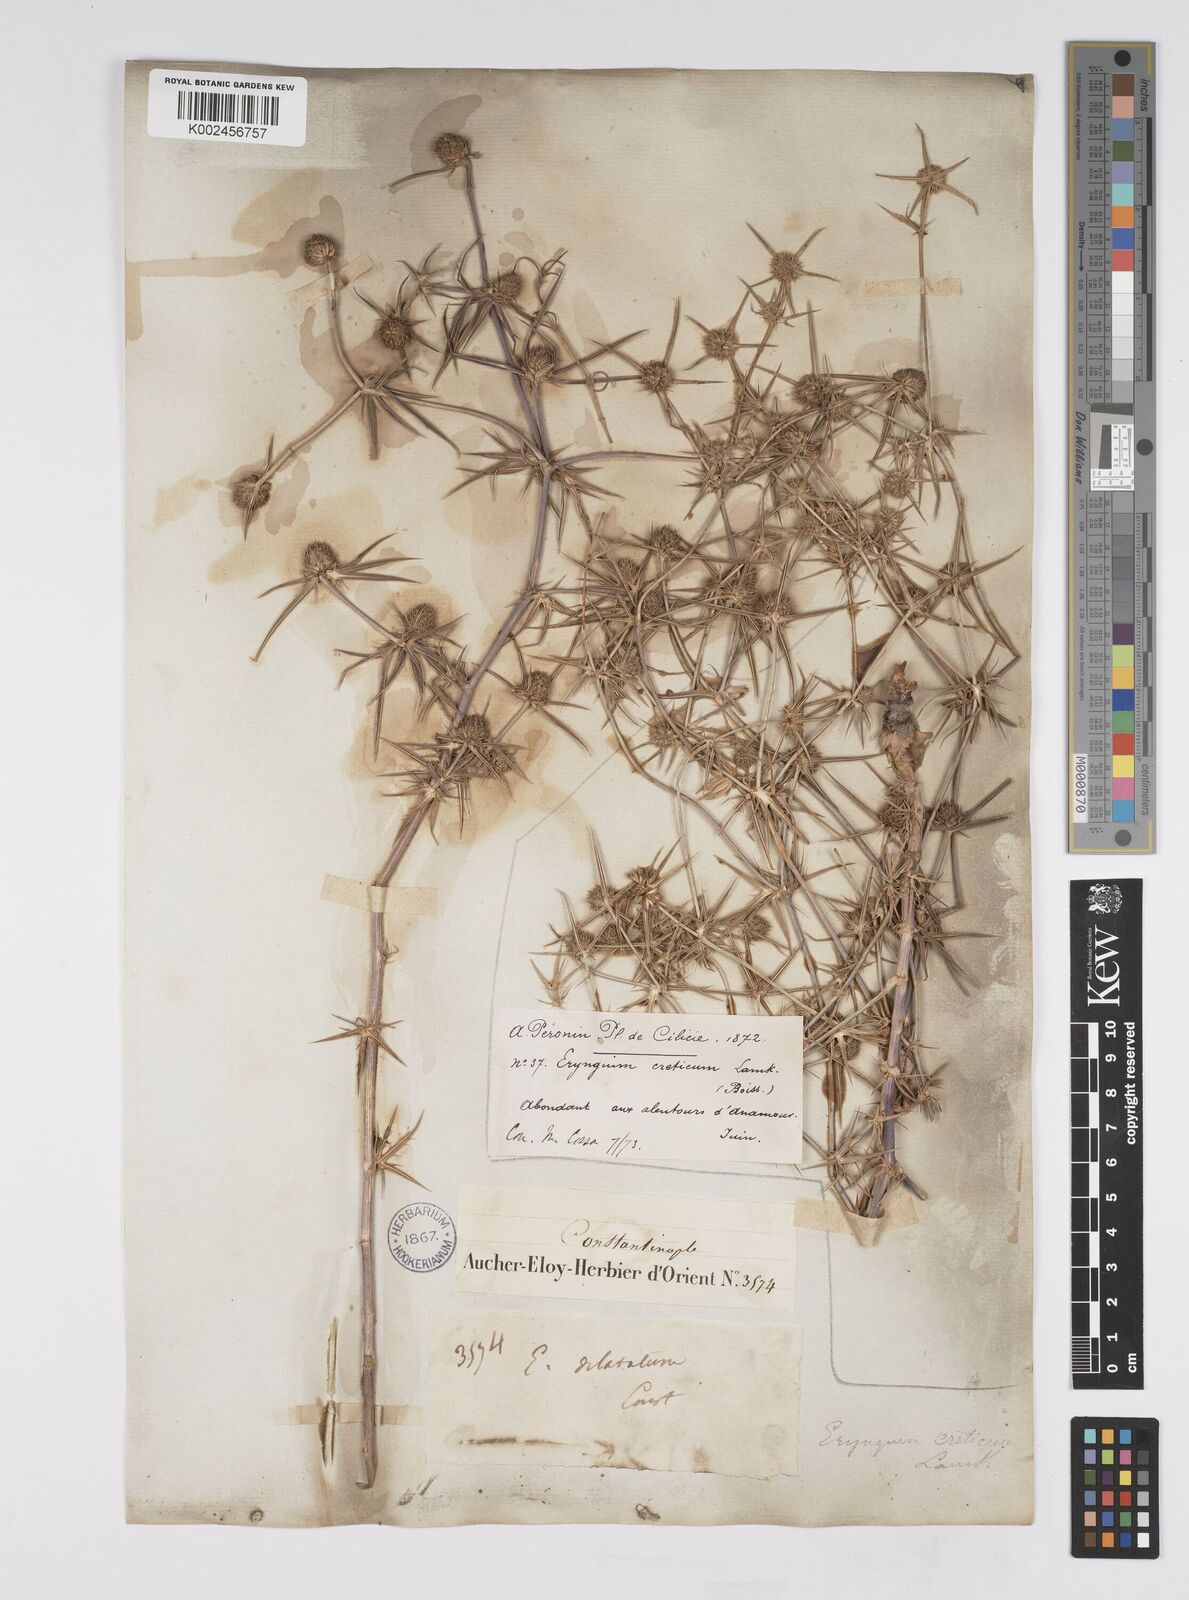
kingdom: Plantae
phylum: Tracheophyta
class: Magnoliopsida
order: Apiales
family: Apiaceae
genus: Eryngium
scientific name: Eryngium creticum
